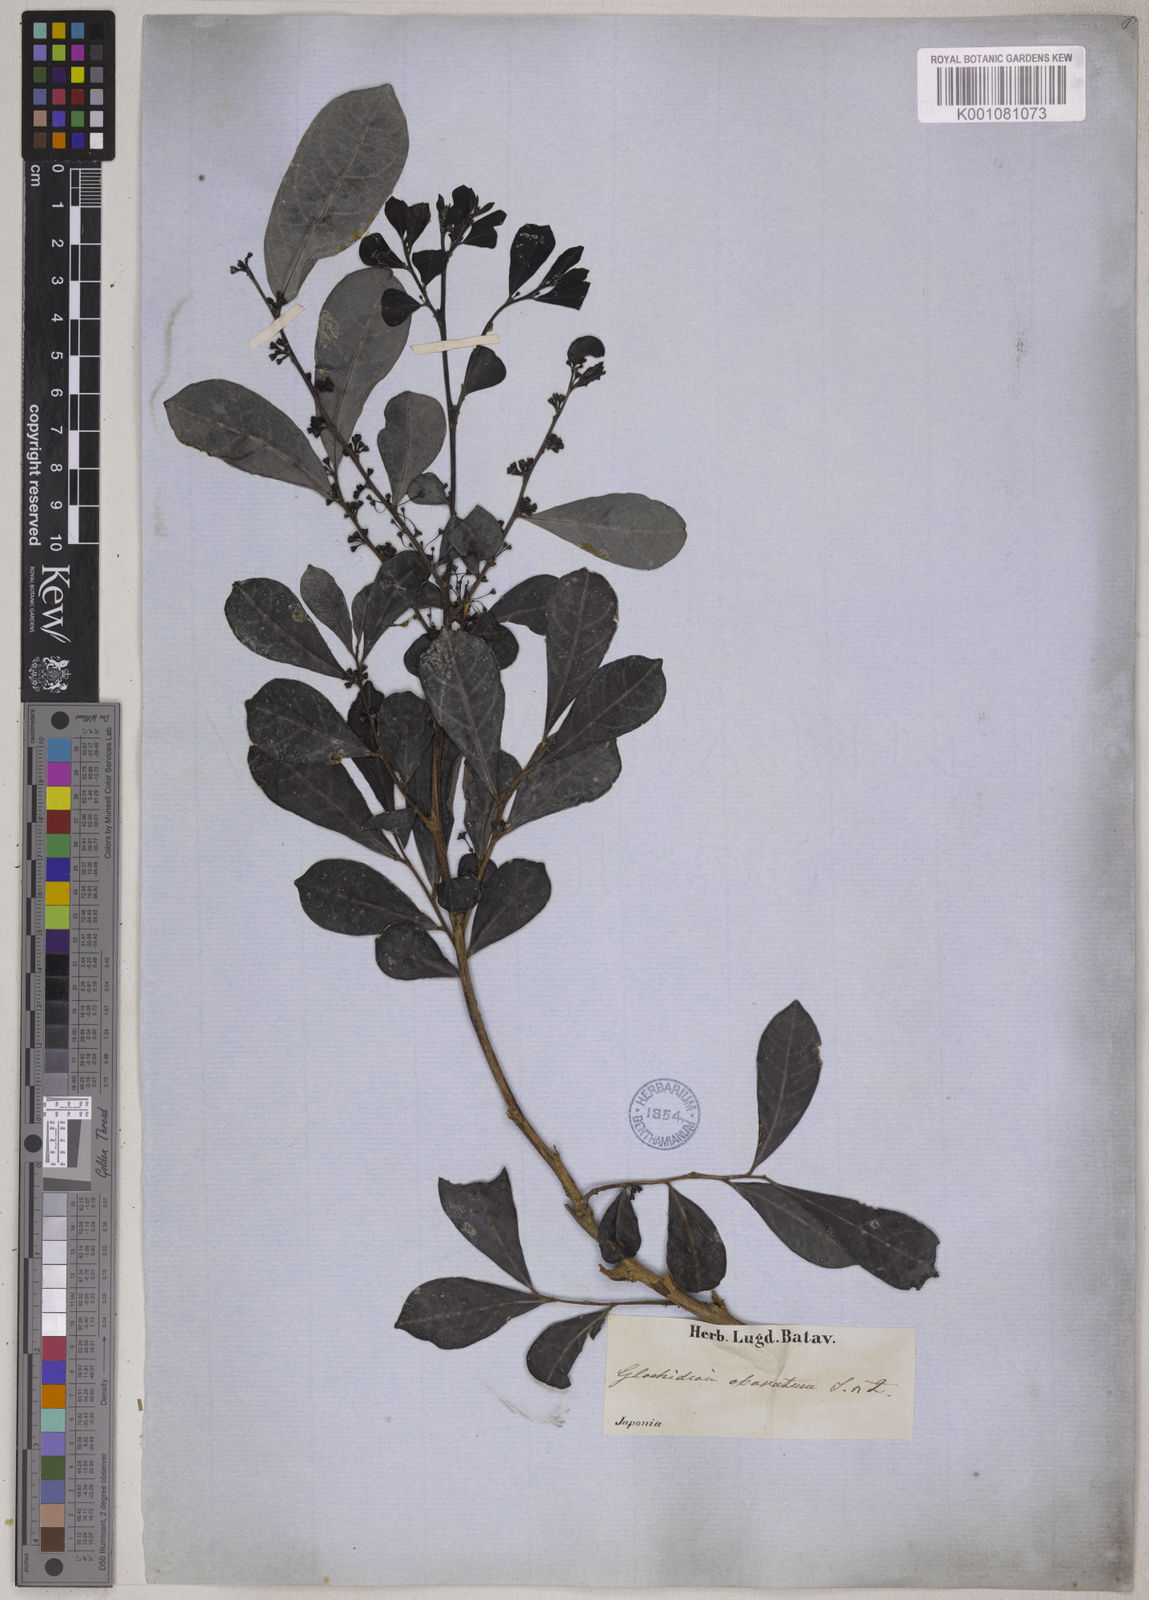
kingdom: Plantae
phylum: Tracheophyta
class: Magnoliopsida
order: Malpighiales
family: Phyllanthaceae
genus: Glochidion
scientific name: Glochidion obovatum
